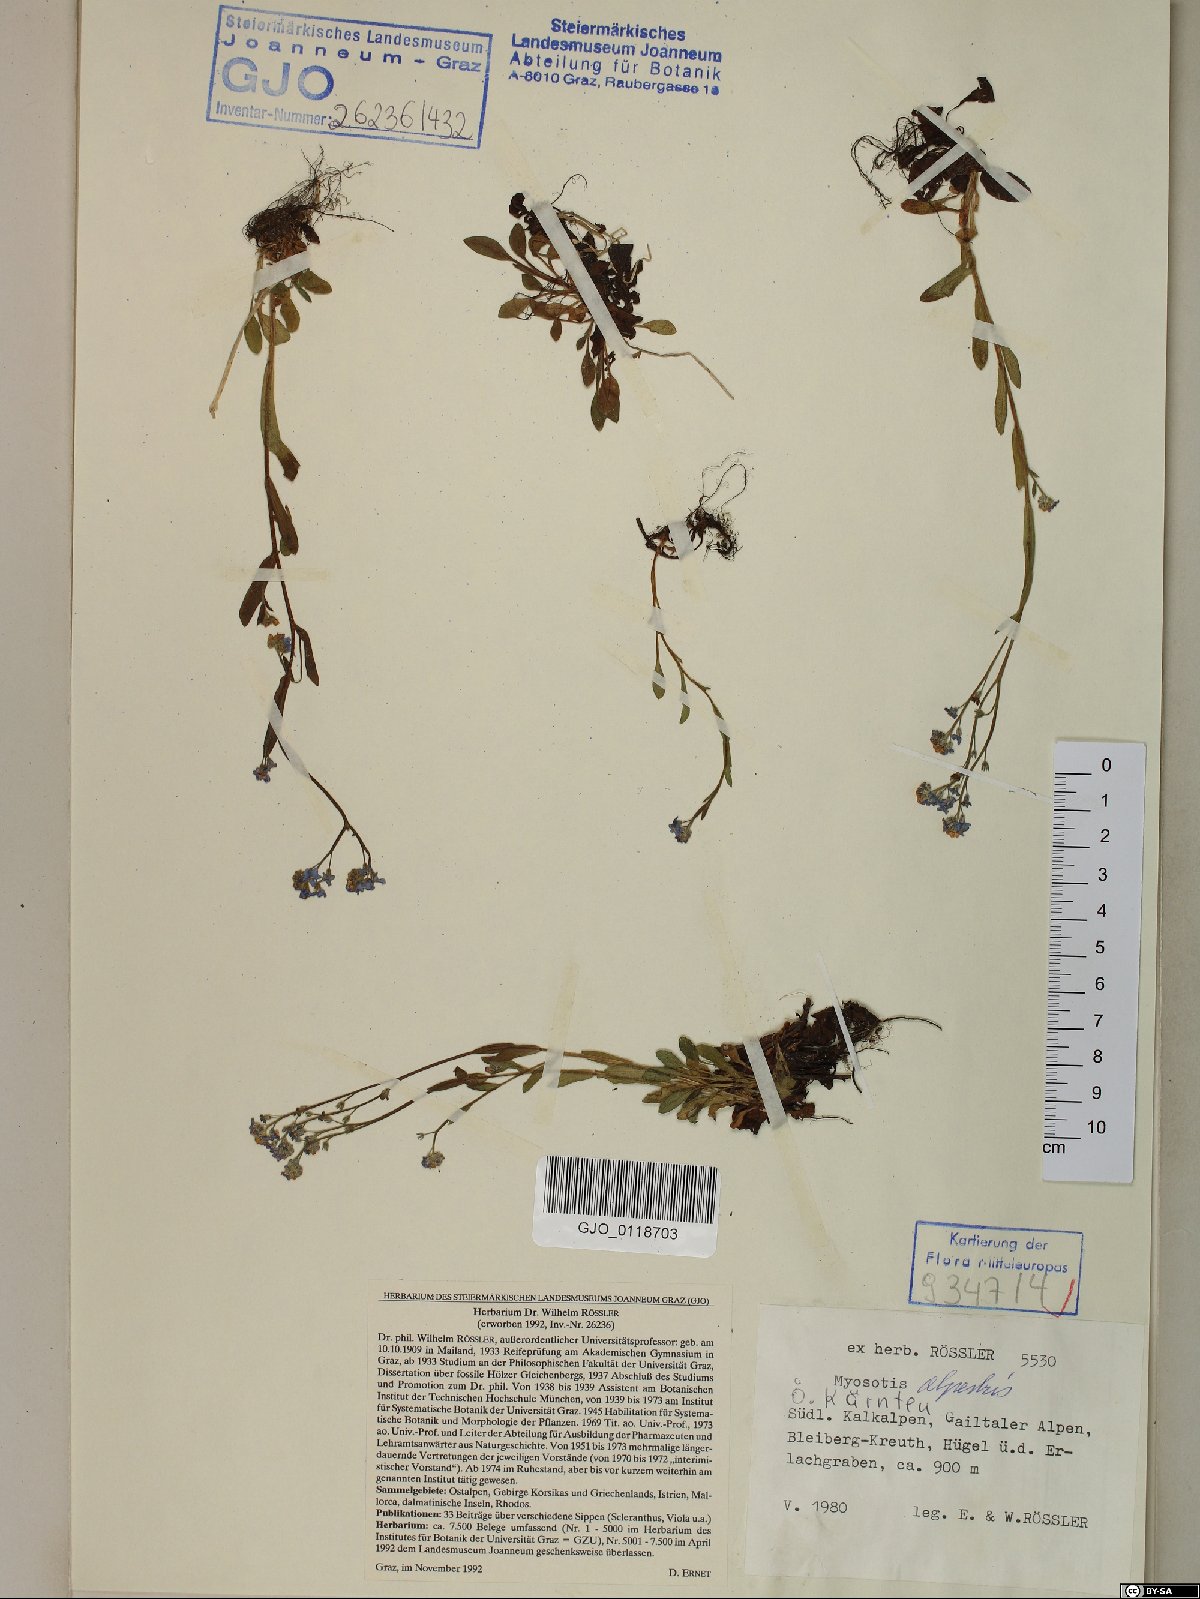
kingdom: Plantae
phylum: Tracheophyta
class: Magnoliopsida
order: Boraginales
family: Boraginaceae
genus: Myosotis
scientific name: Myosotis alpestris
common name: Alpine forget-me-not
